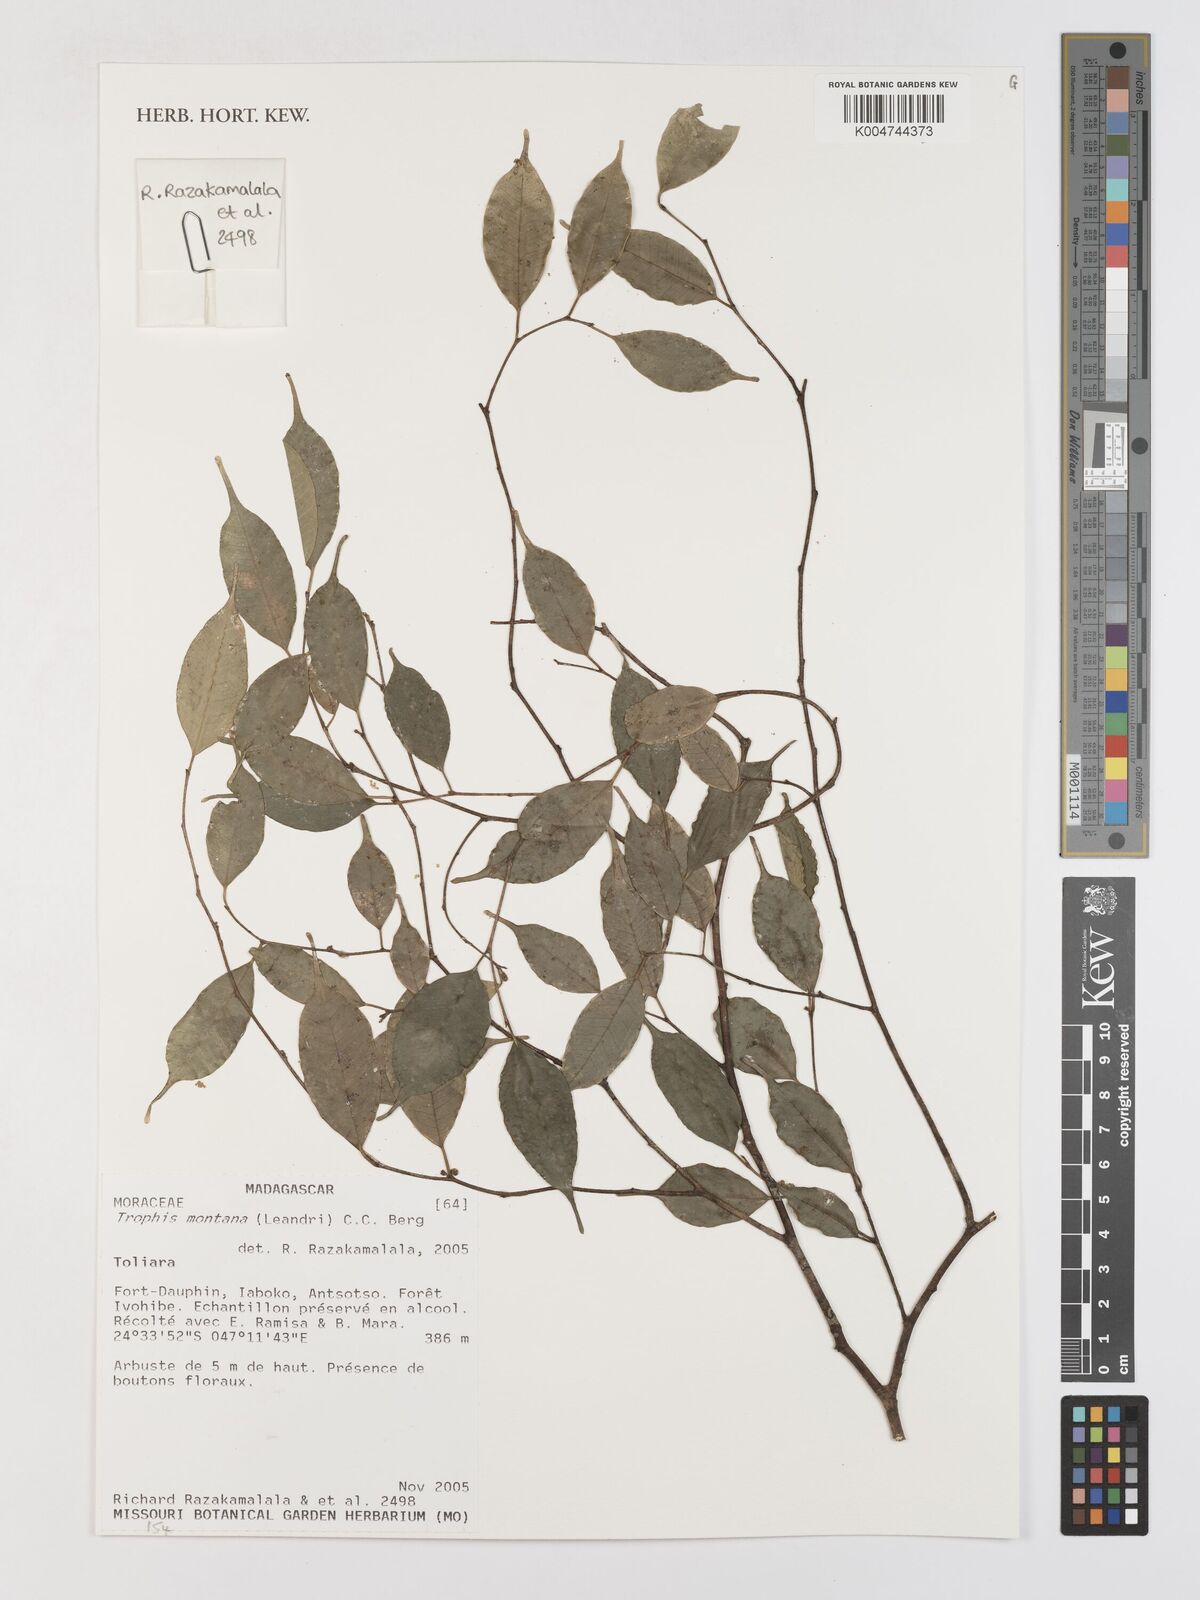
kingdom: Plantae
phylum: Tracheophyta
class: Magnoliopsida
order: Rosales
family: Moraceae
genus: Maillardia
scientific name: Maillardia montana
